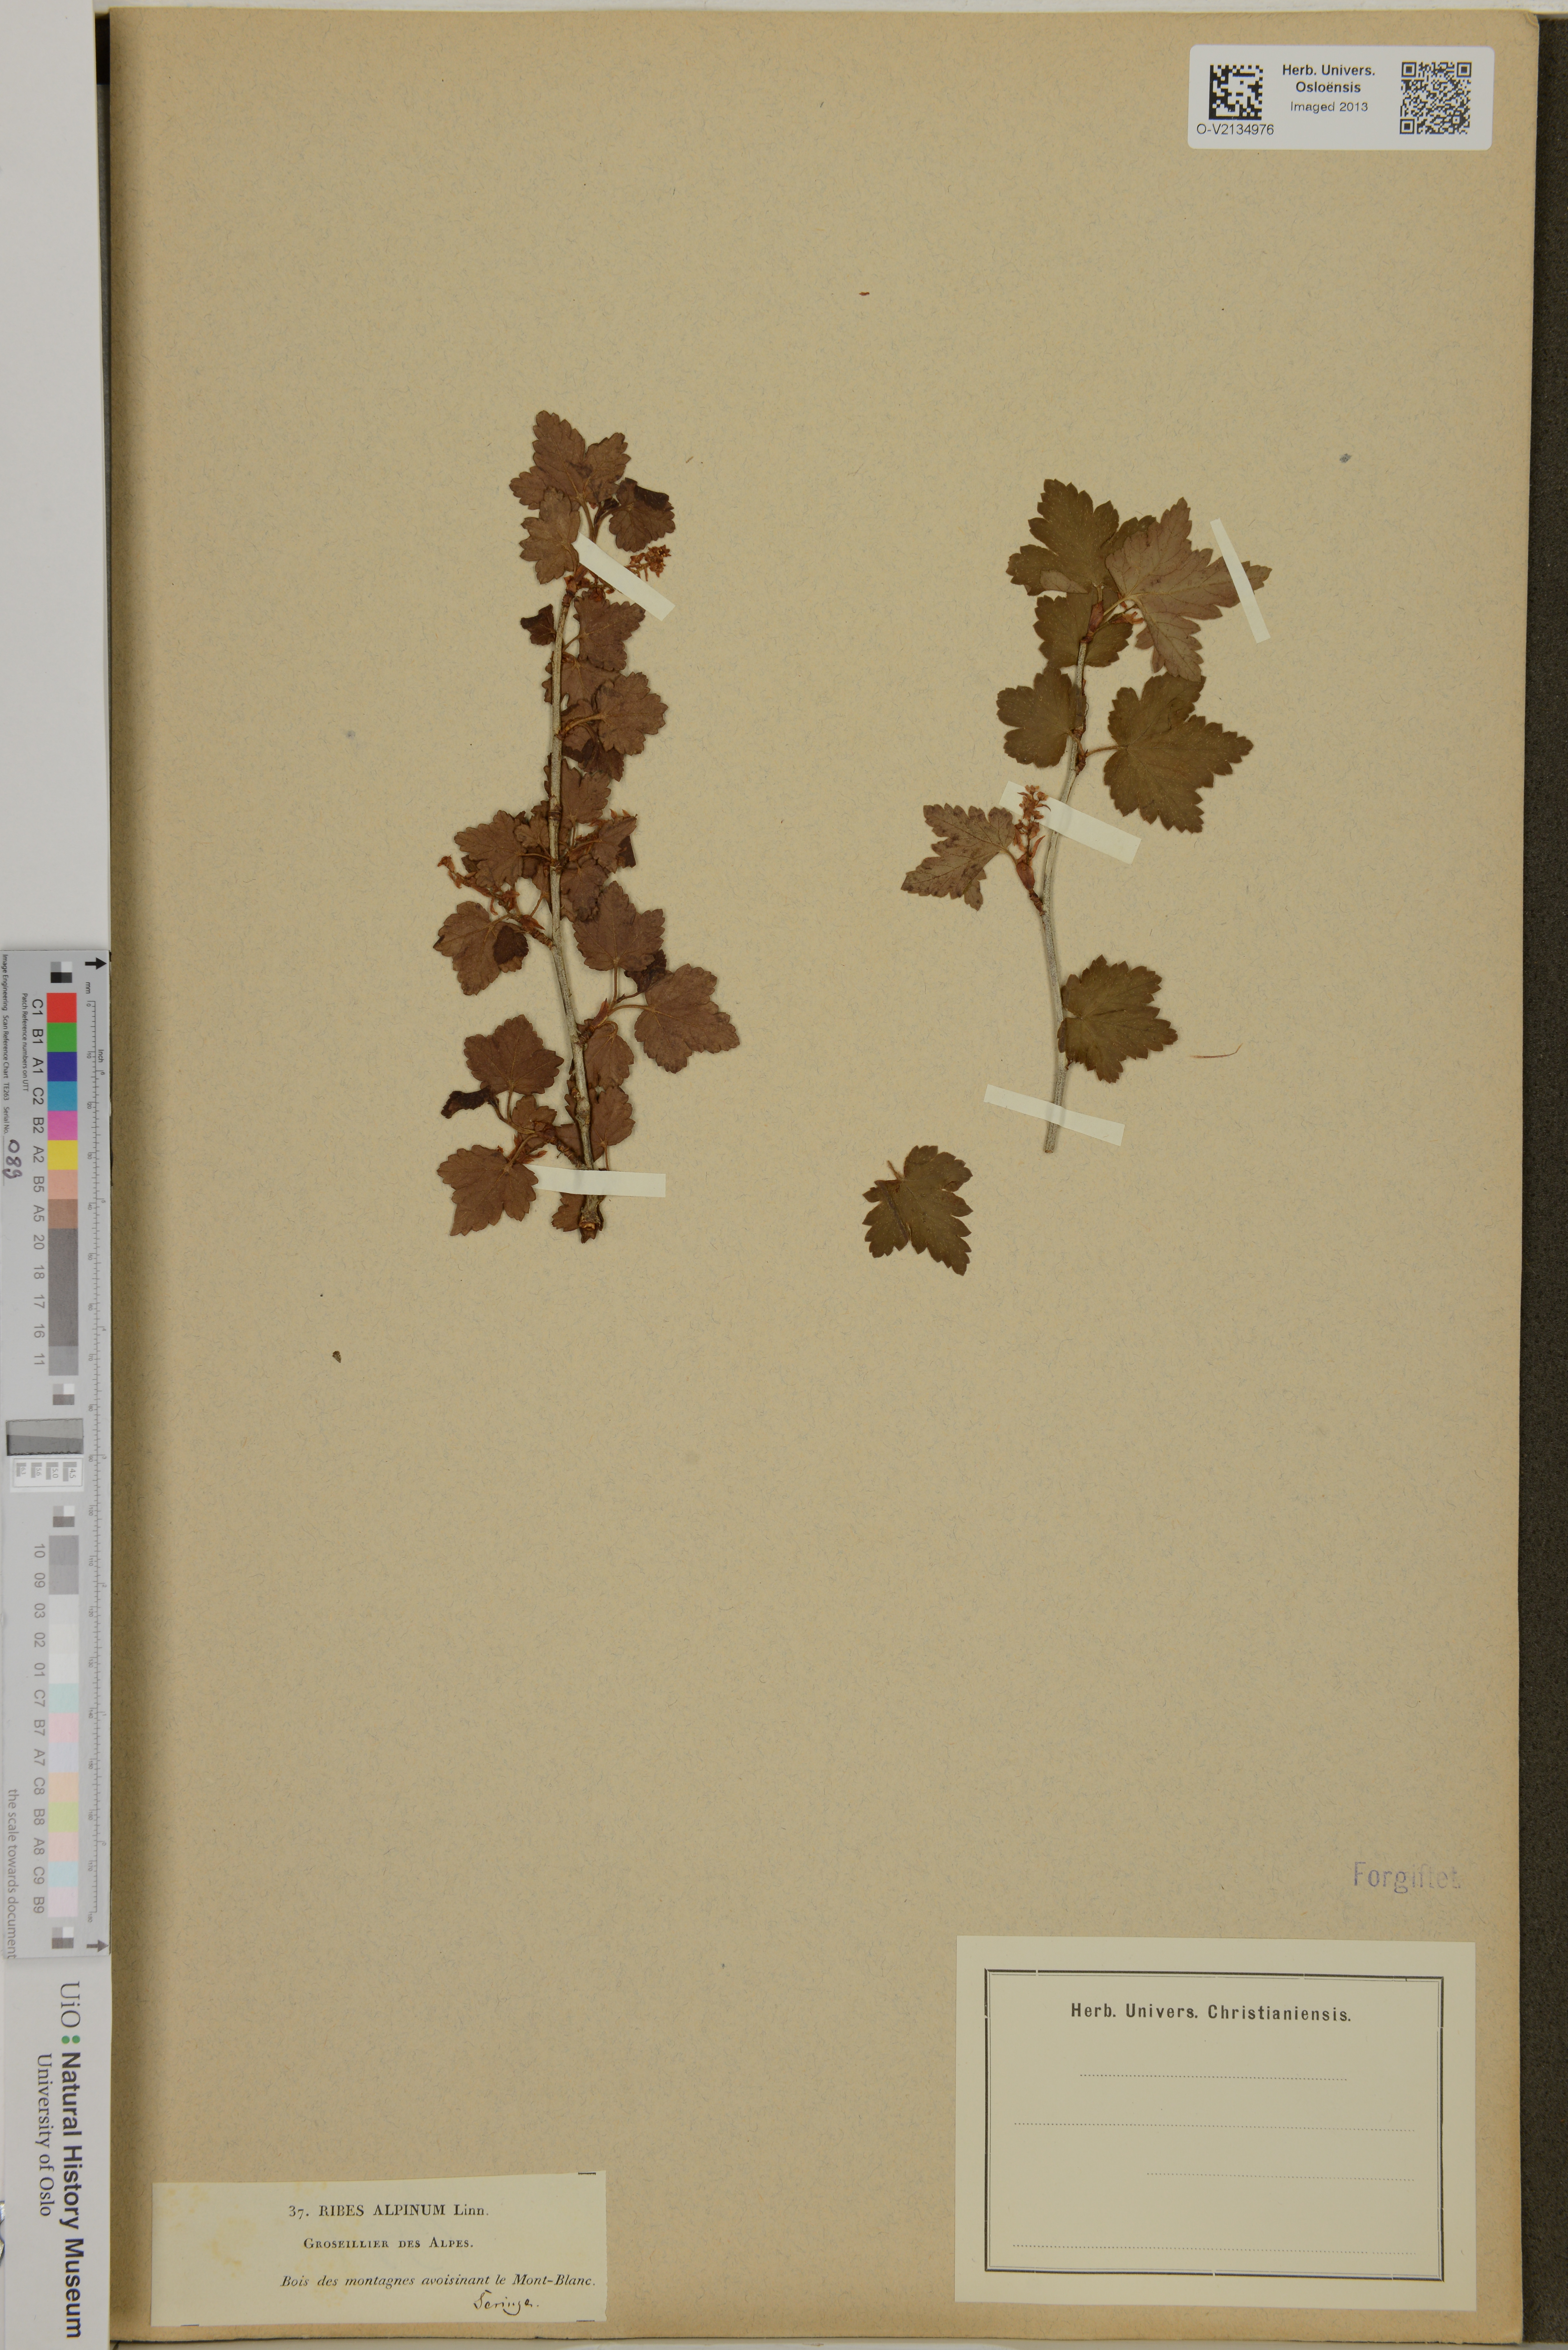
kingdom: Plantae
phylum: Tracheophyta
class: Magnoliopsida
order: Saxifragales
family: Grossulariaceae
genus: Ribes
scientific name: Ribes alpinum
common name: Alpine currant
